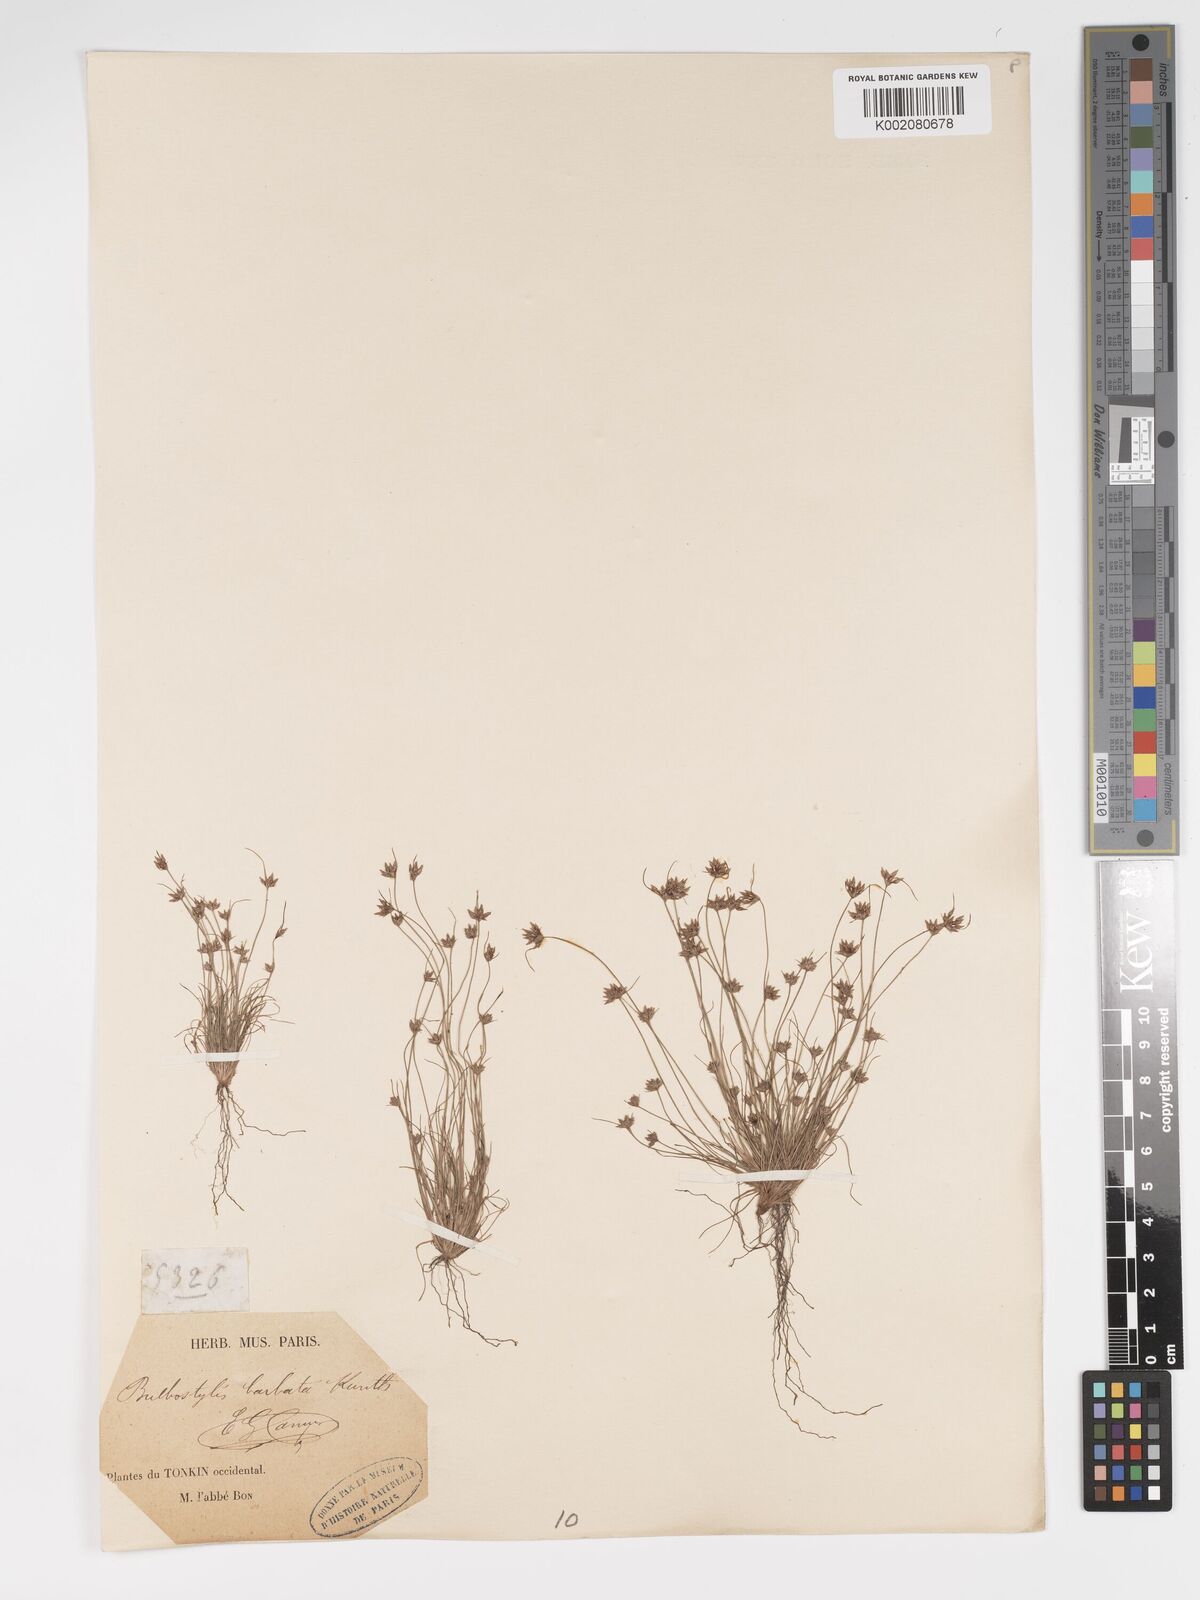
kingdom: Plantae
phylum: Tracheophyta
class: Liliopsida
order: Poales
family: Cyperaceae
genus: Bulbostylis
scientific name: Bulbostylis barbata
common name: Watergrass
